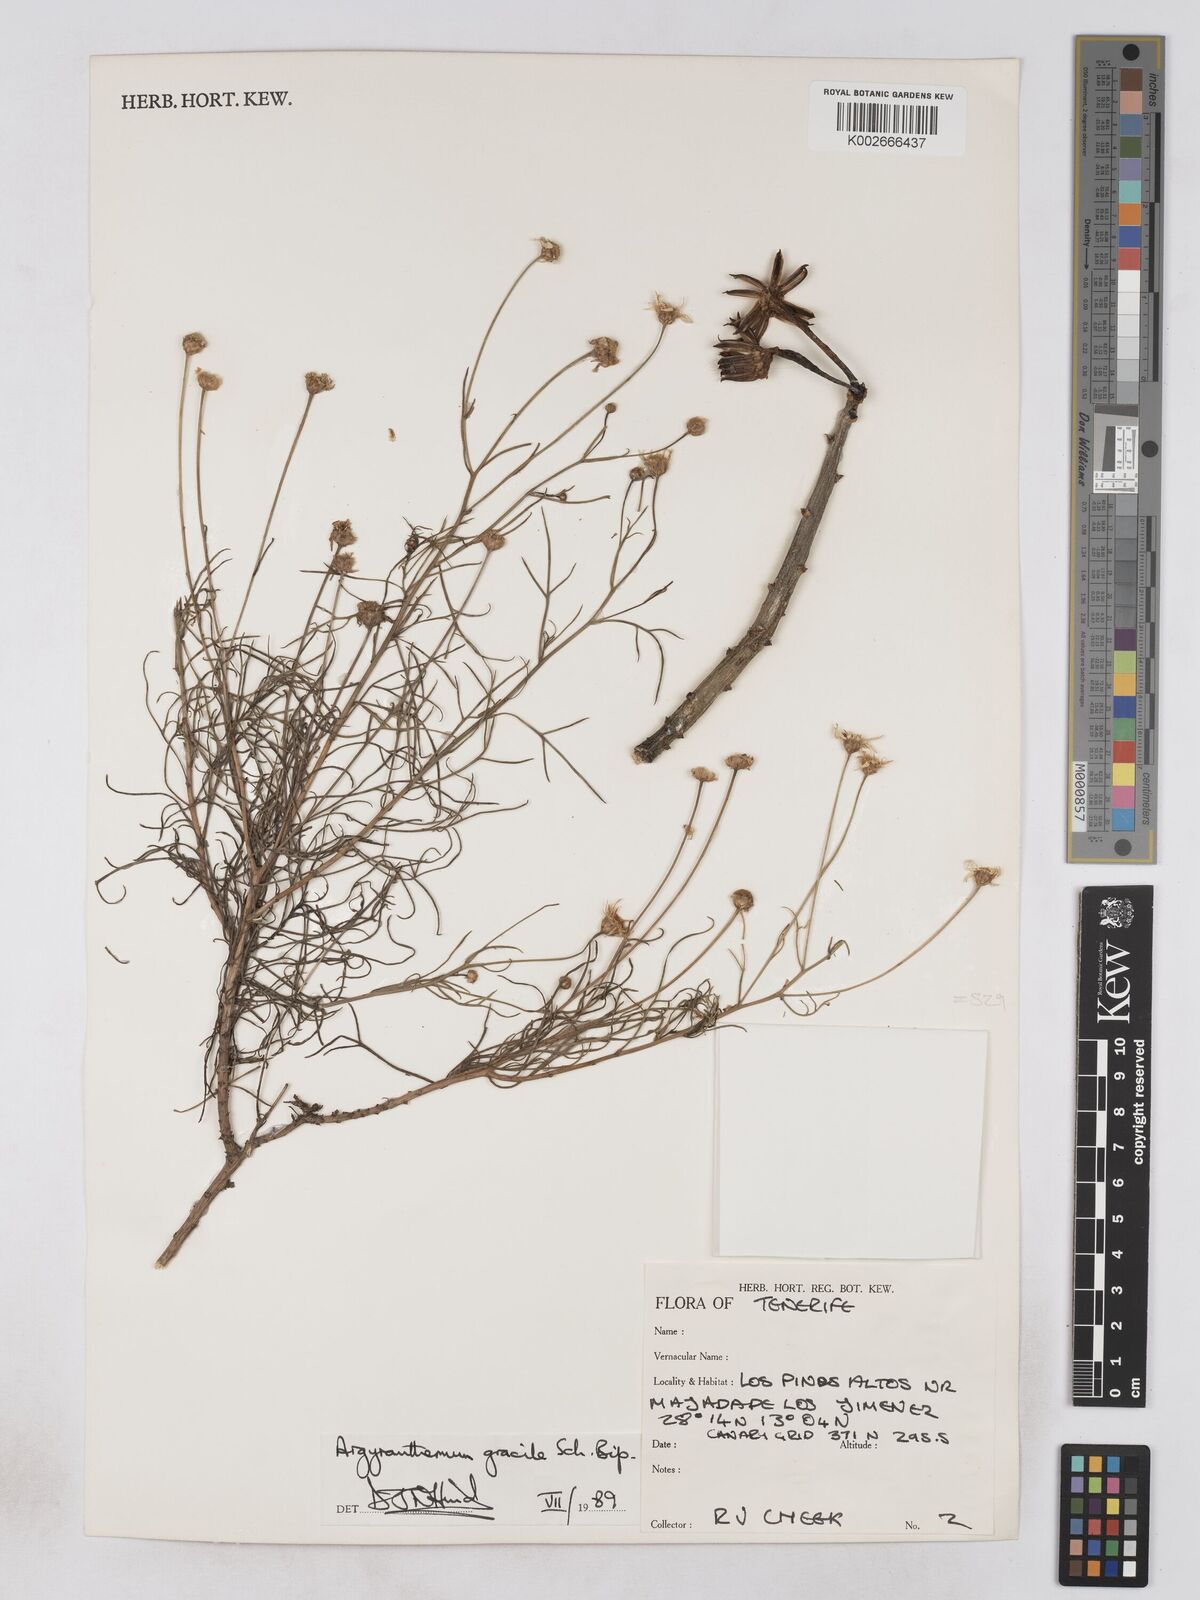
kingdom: Plantae
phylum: Tracheophyta
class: Magnoliopsida
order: Asterales
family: Asteraceae
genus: Argyranthemum
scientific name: Argyranthemum gracile
